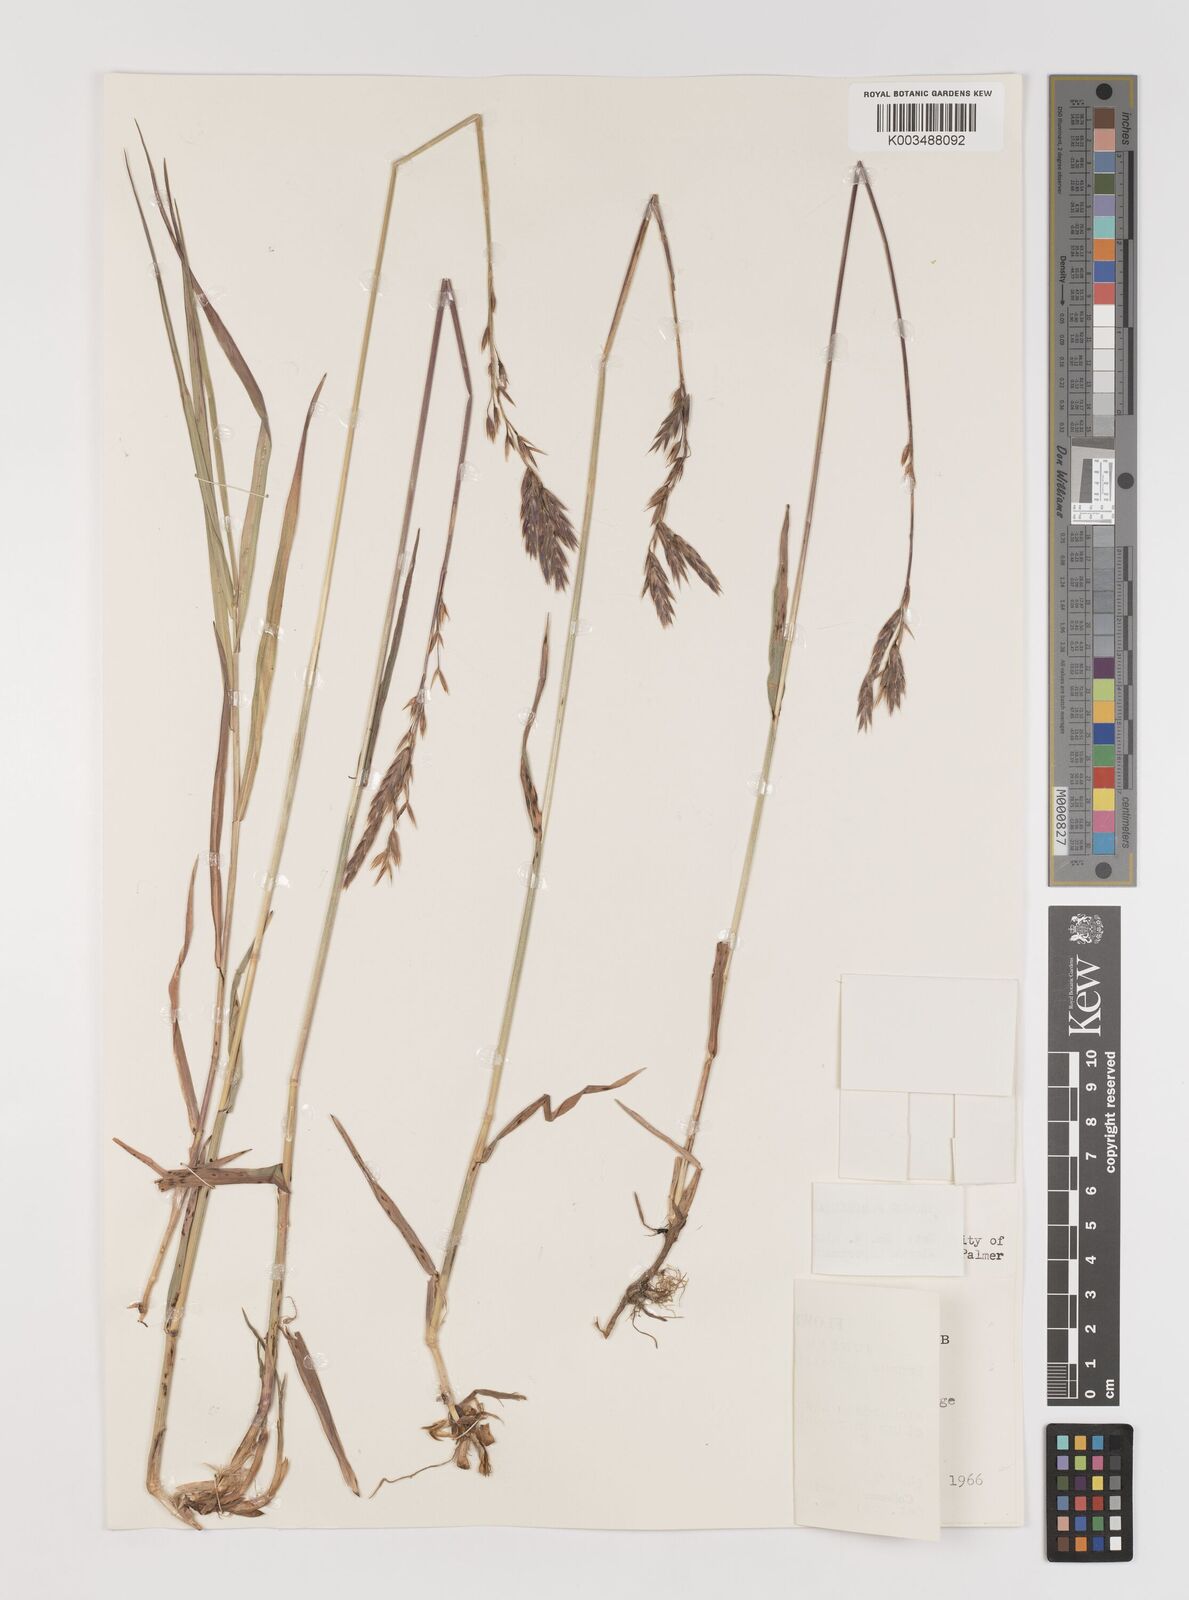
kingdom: Plantae
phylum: Tracheophyta
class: Liliopsida
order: Poales
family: Poaceae
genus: Bromus
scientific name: Bromus pumpellianus
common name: Pumpelly's brome
